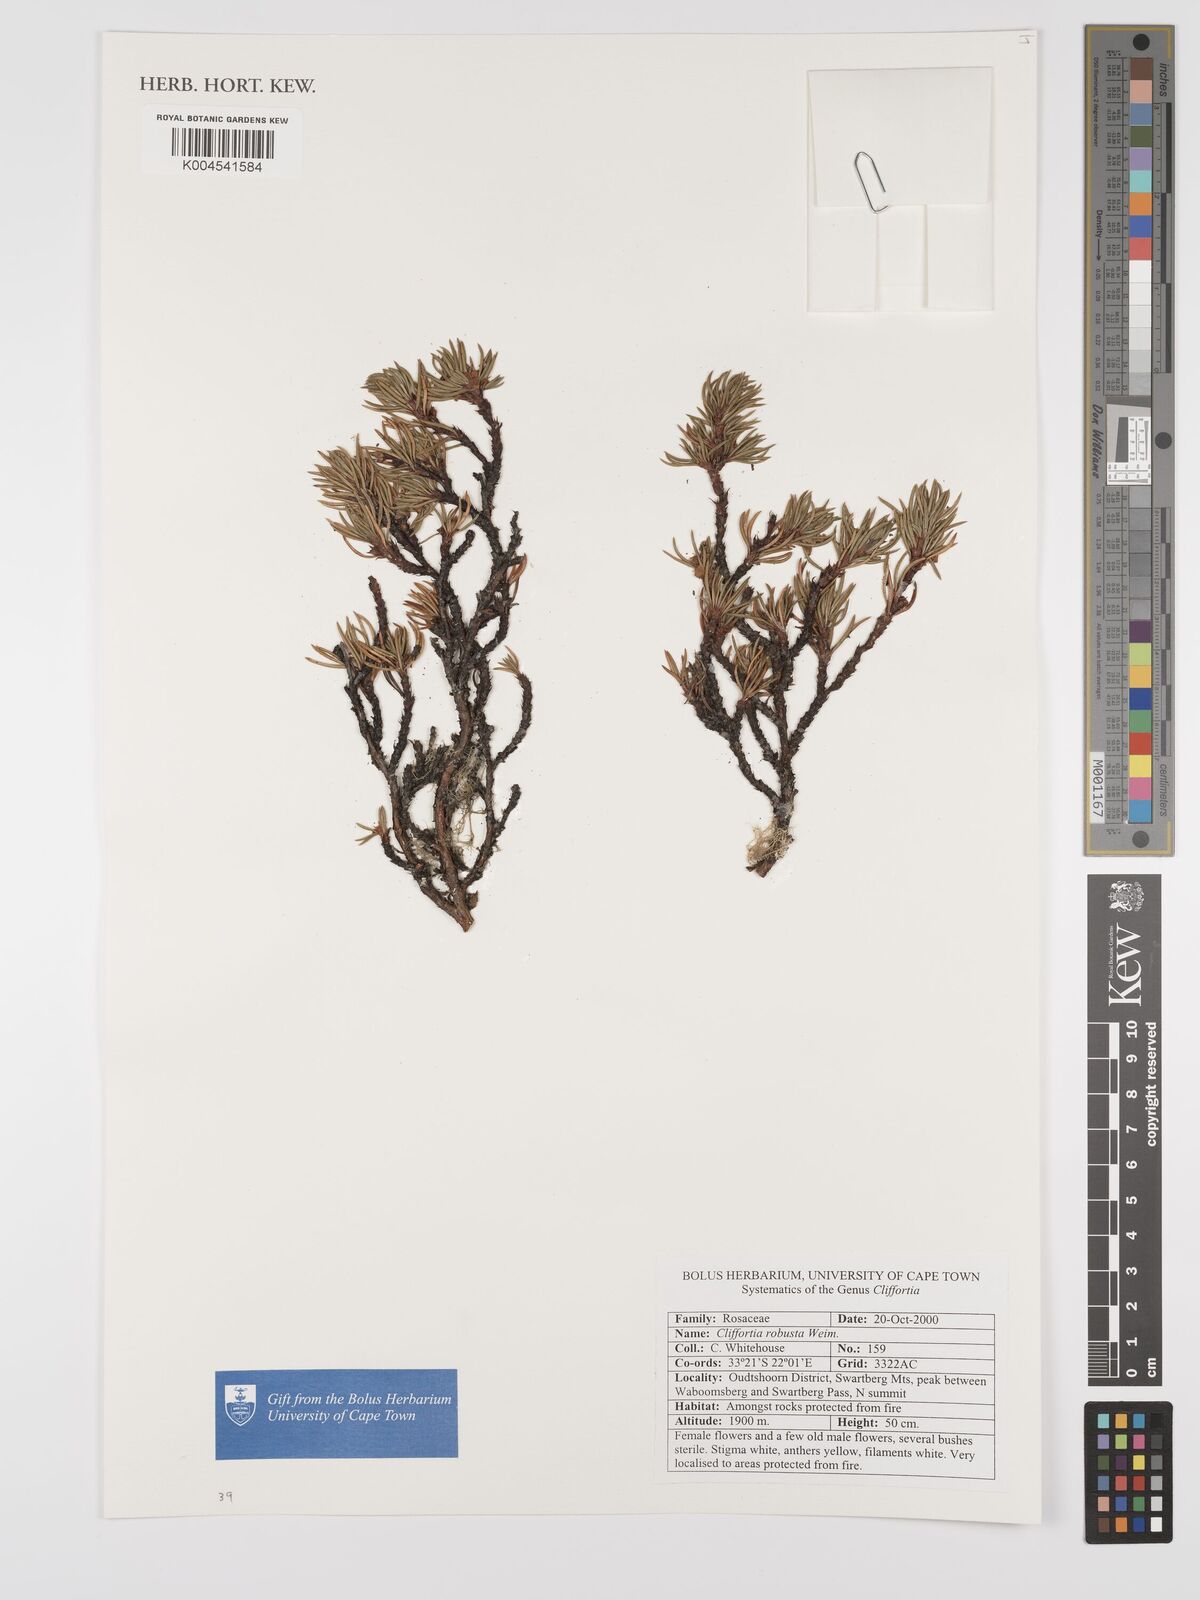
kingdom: Plantae
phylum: Tracheophyta
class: Magnoliopsida
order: Rosales
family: Rosaceae
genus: Cliffortia
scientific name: Cliffortia robusta
